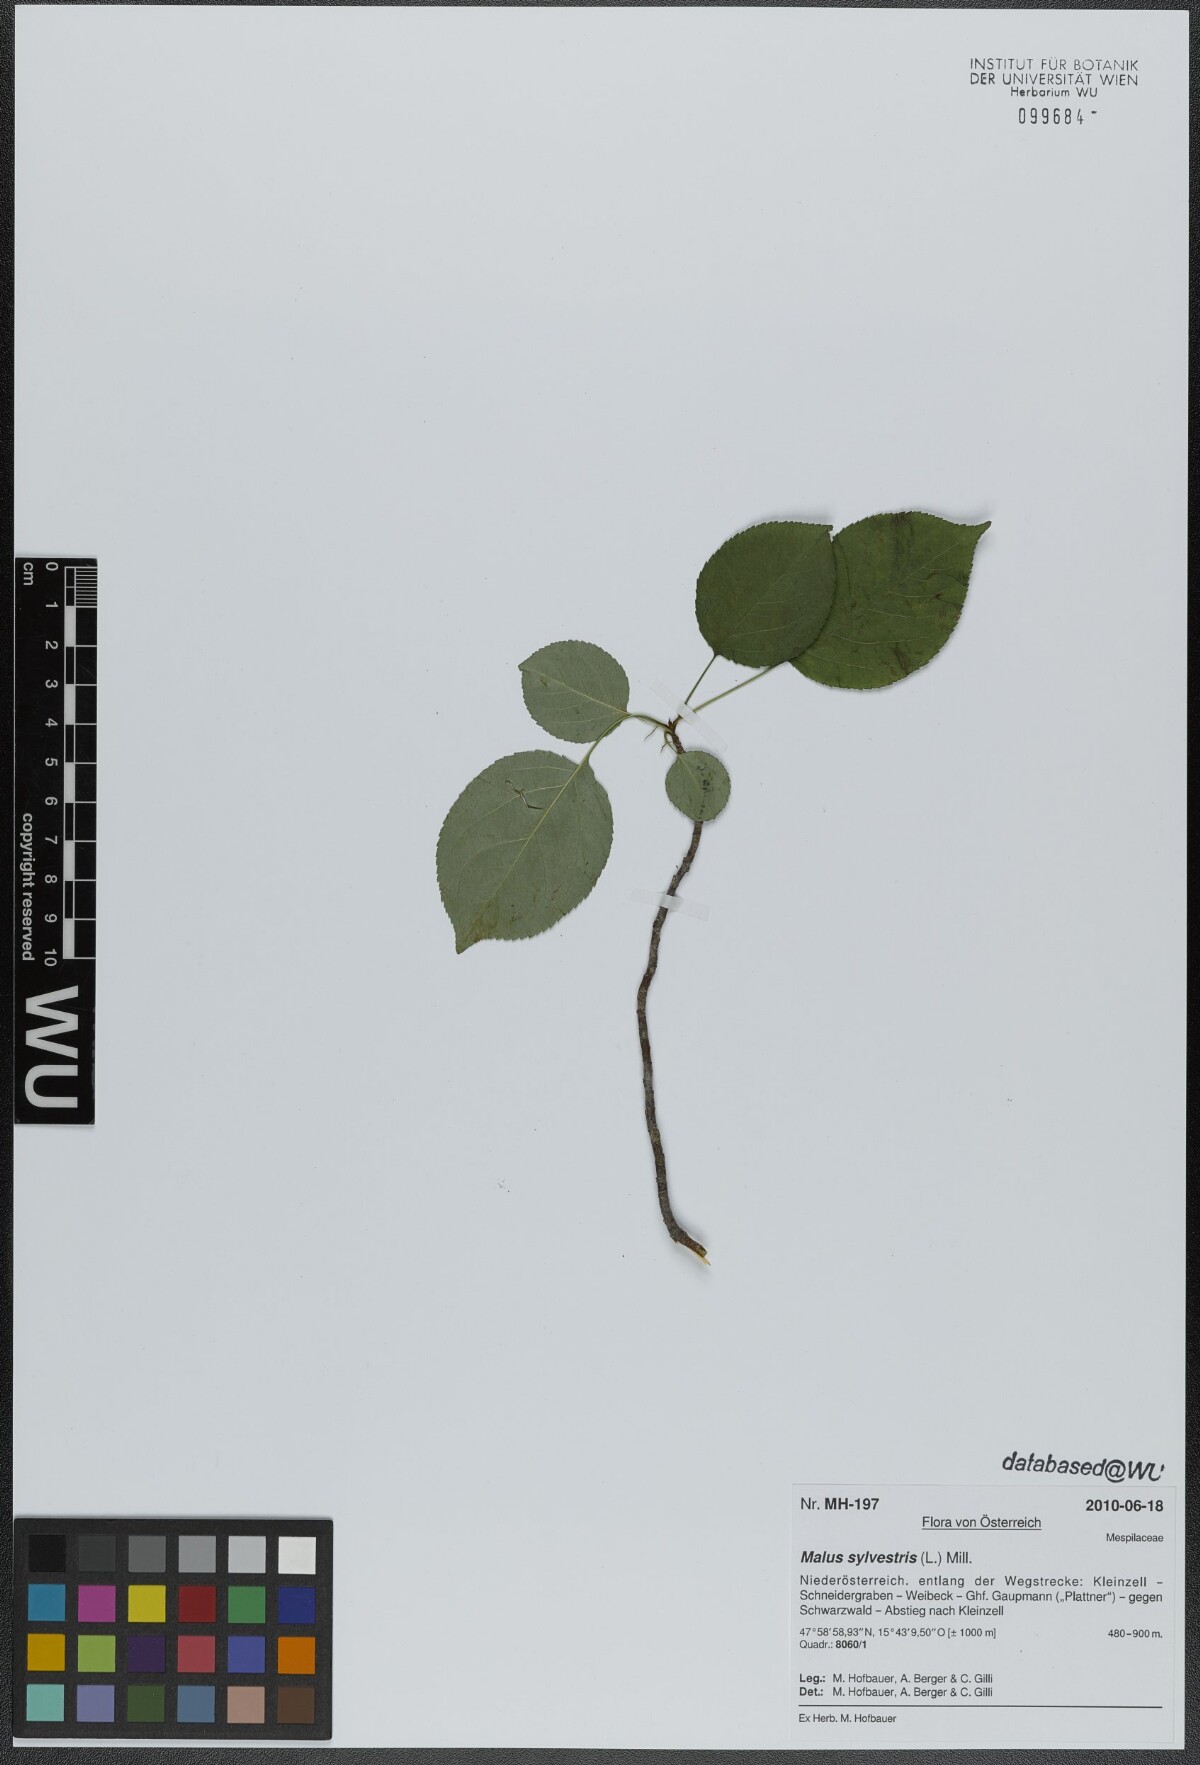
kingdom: Plantae
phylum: Tracheophyta
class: Magnoliopsida
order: Rosales
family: Rosaceae
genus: Malus
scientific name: Malus sylvestris
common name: Crab apple
